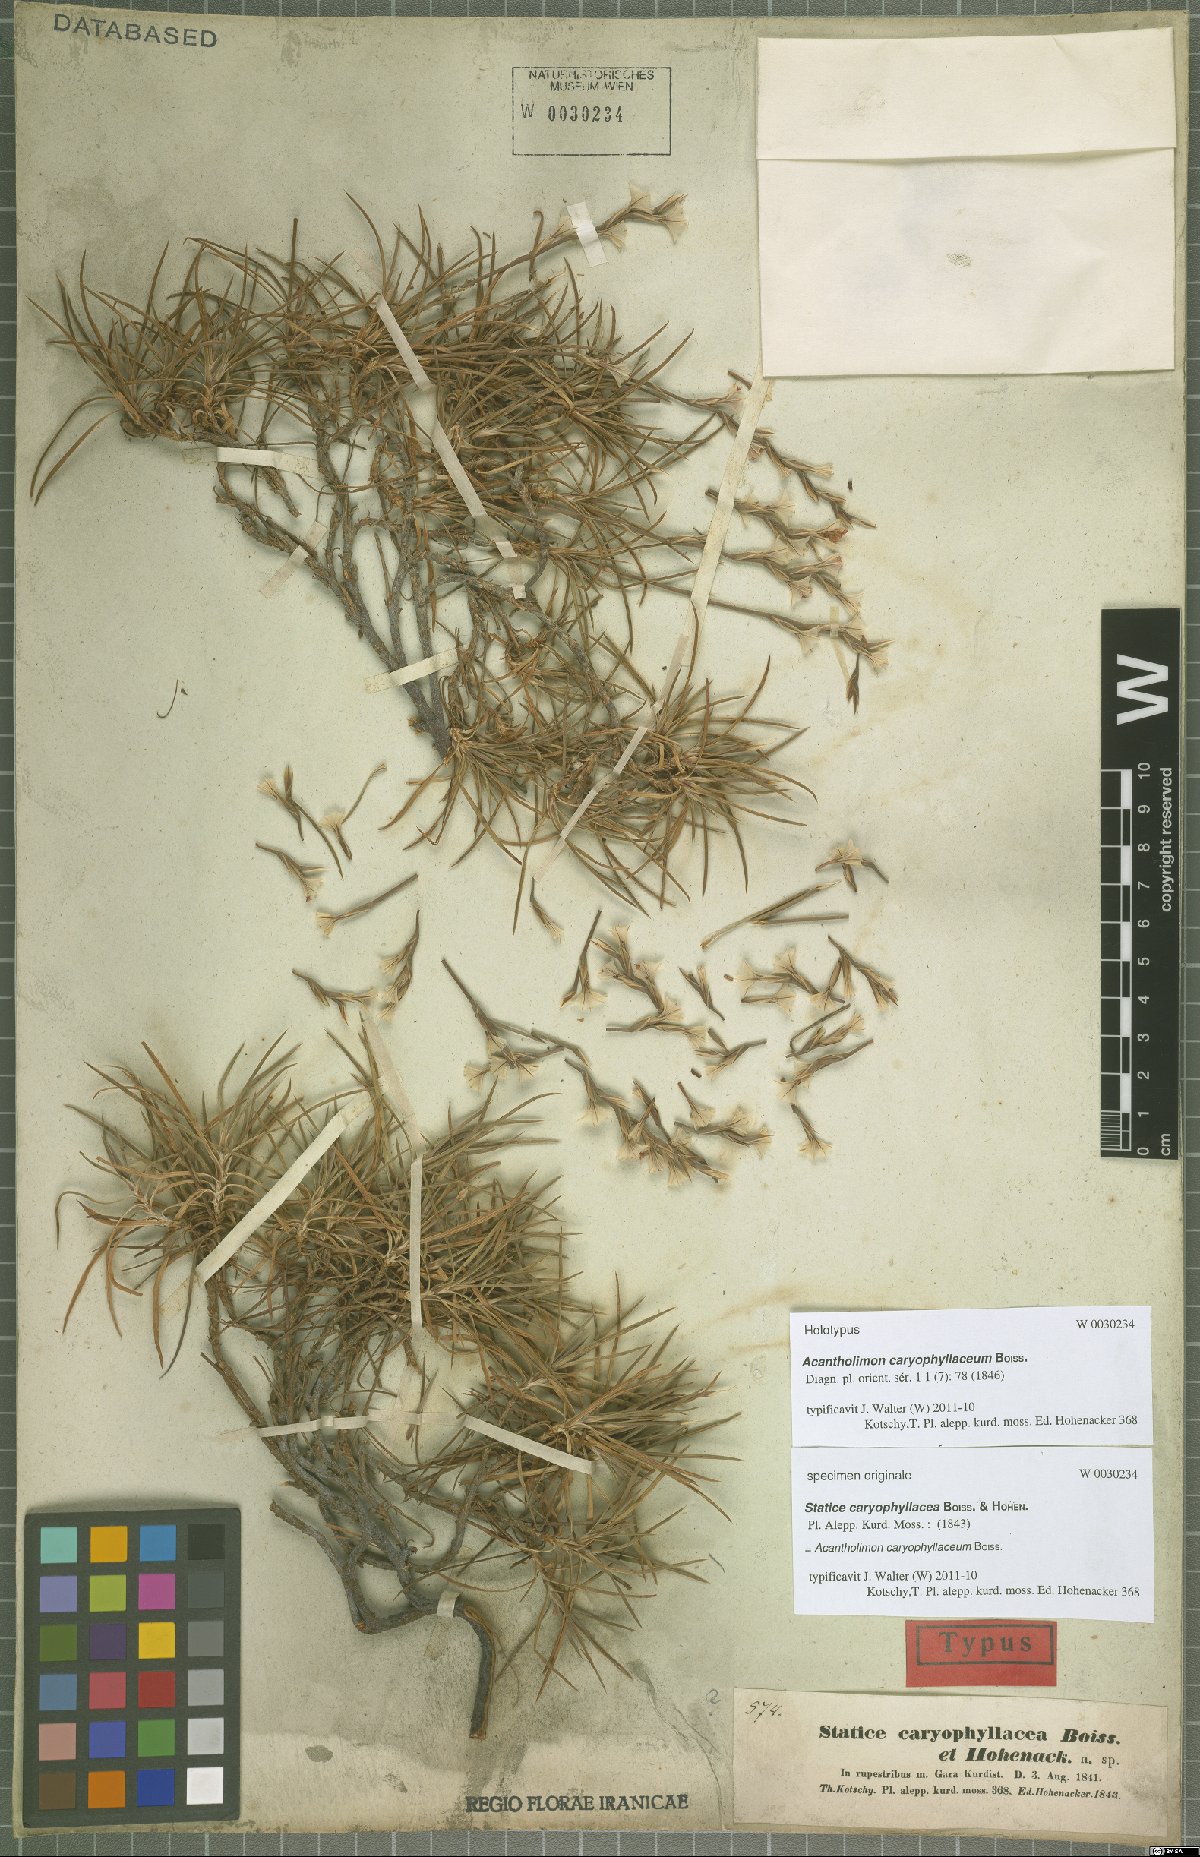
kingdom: Plantae
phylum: Tracheophyta
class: Magnoliopsida
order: Caryophyllales
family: Plumbaginaceae
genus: Acantholimon
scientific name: Acantholimon caryophyllaceum
